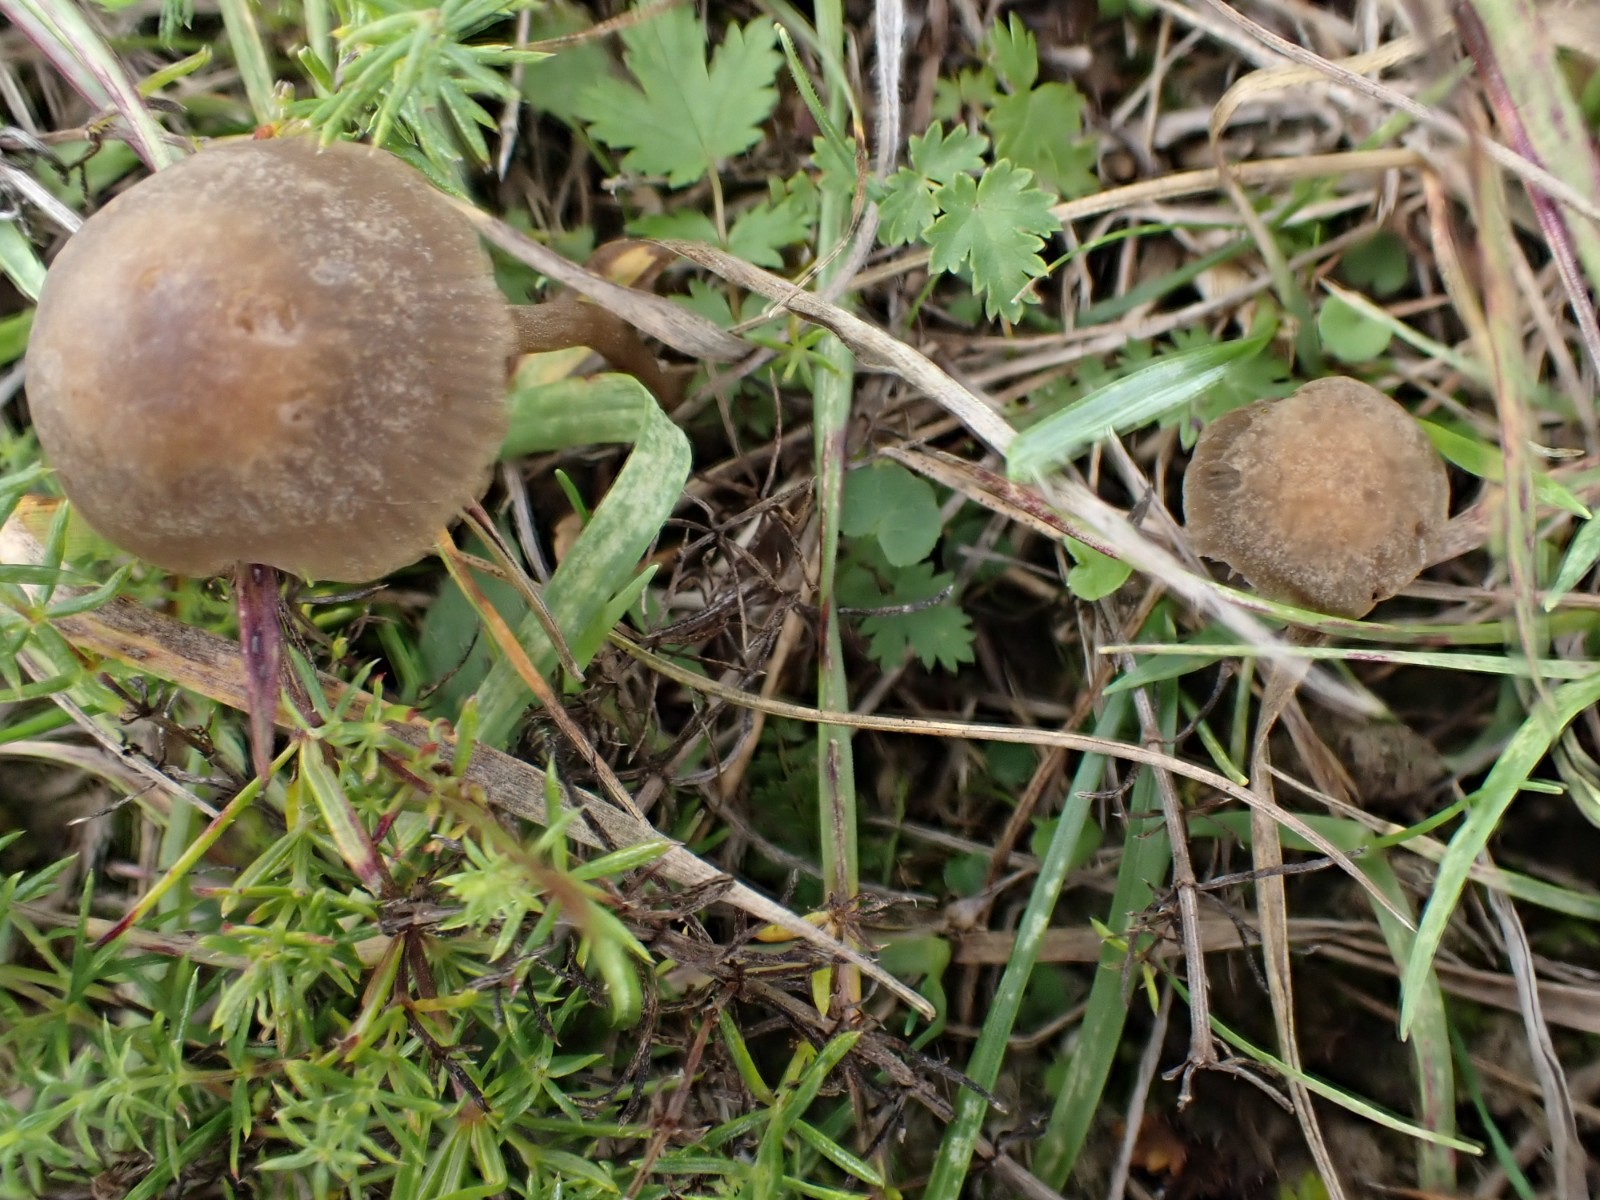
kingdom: Fungi
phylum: Basidiomycota
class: Agaricomycetes
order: Agaricales
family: Bolbitiaceae
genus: Panaeolina
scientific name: Panaeolina foenisecii
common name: høslætsvamp
